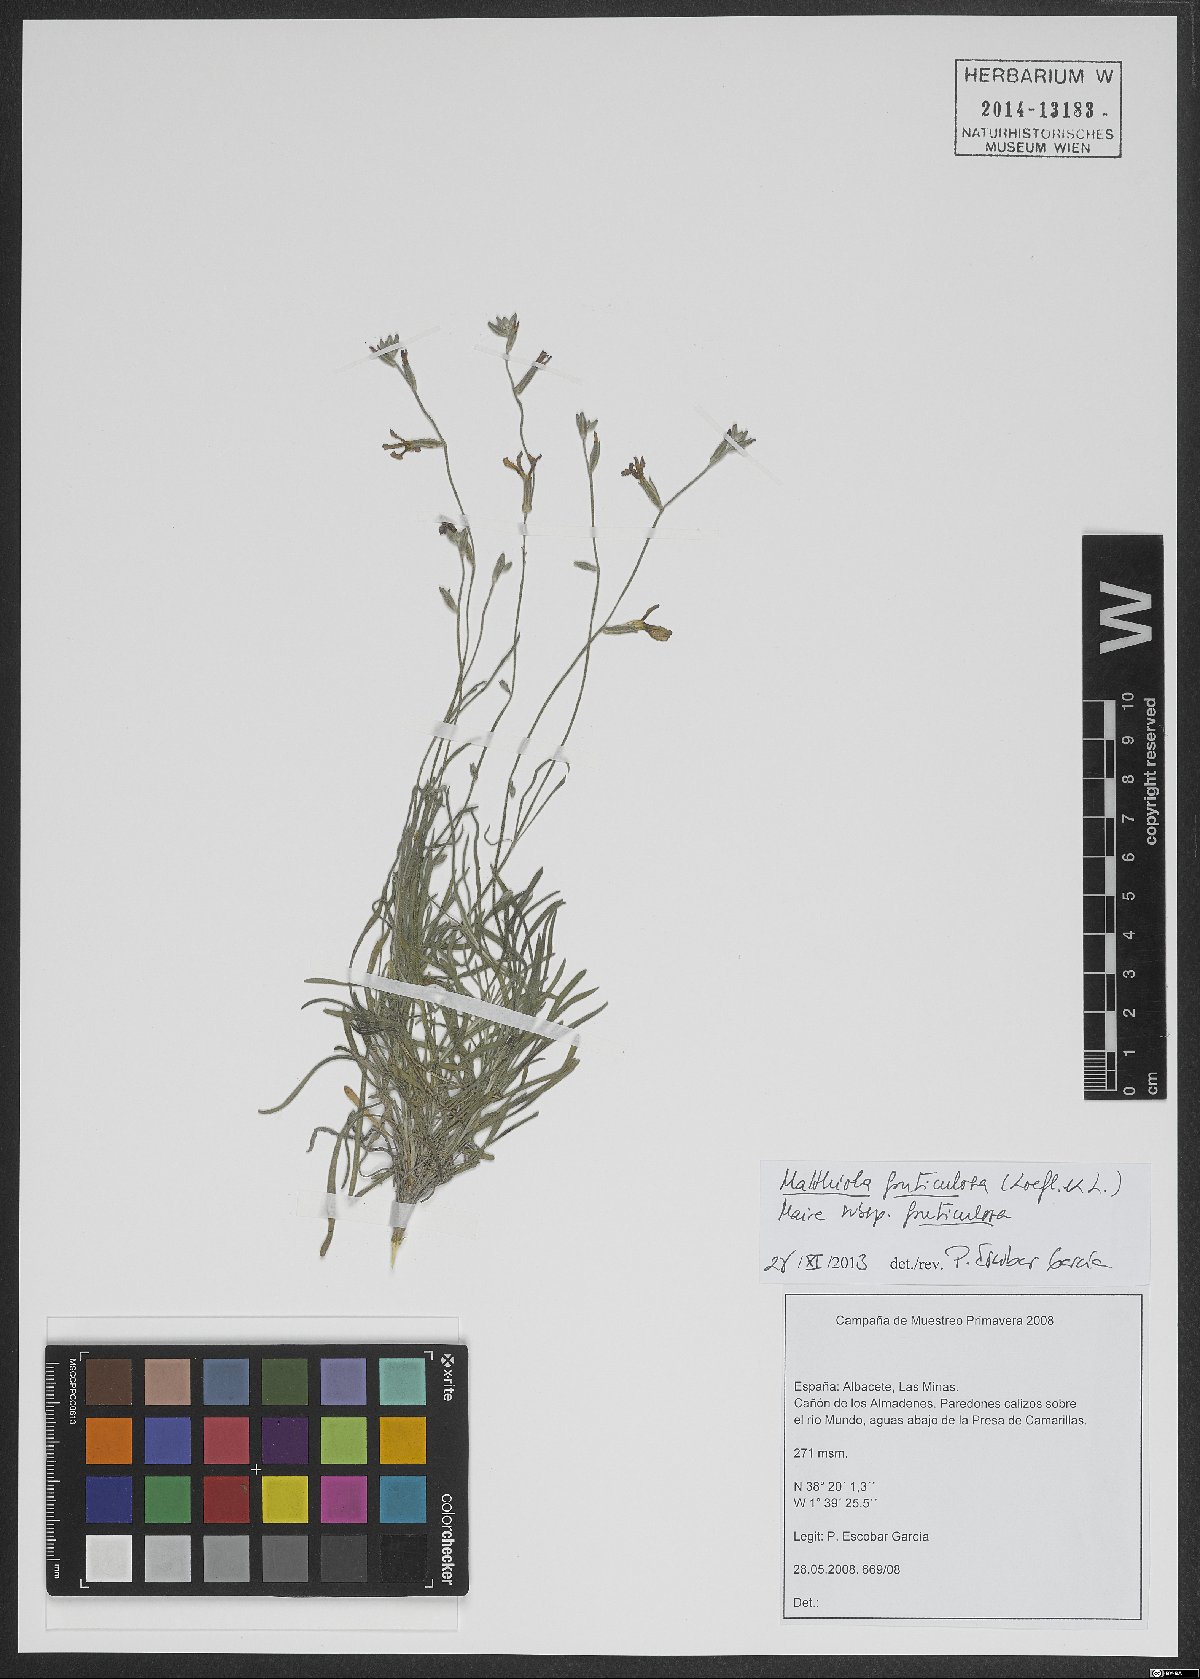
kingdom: Plantae
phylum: Tracheophyta
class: Magnoliopsida
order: Brassicales
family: Brassicaceae
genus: Matthiola
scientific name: Matthiola fruticulosa
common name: Sad stock
